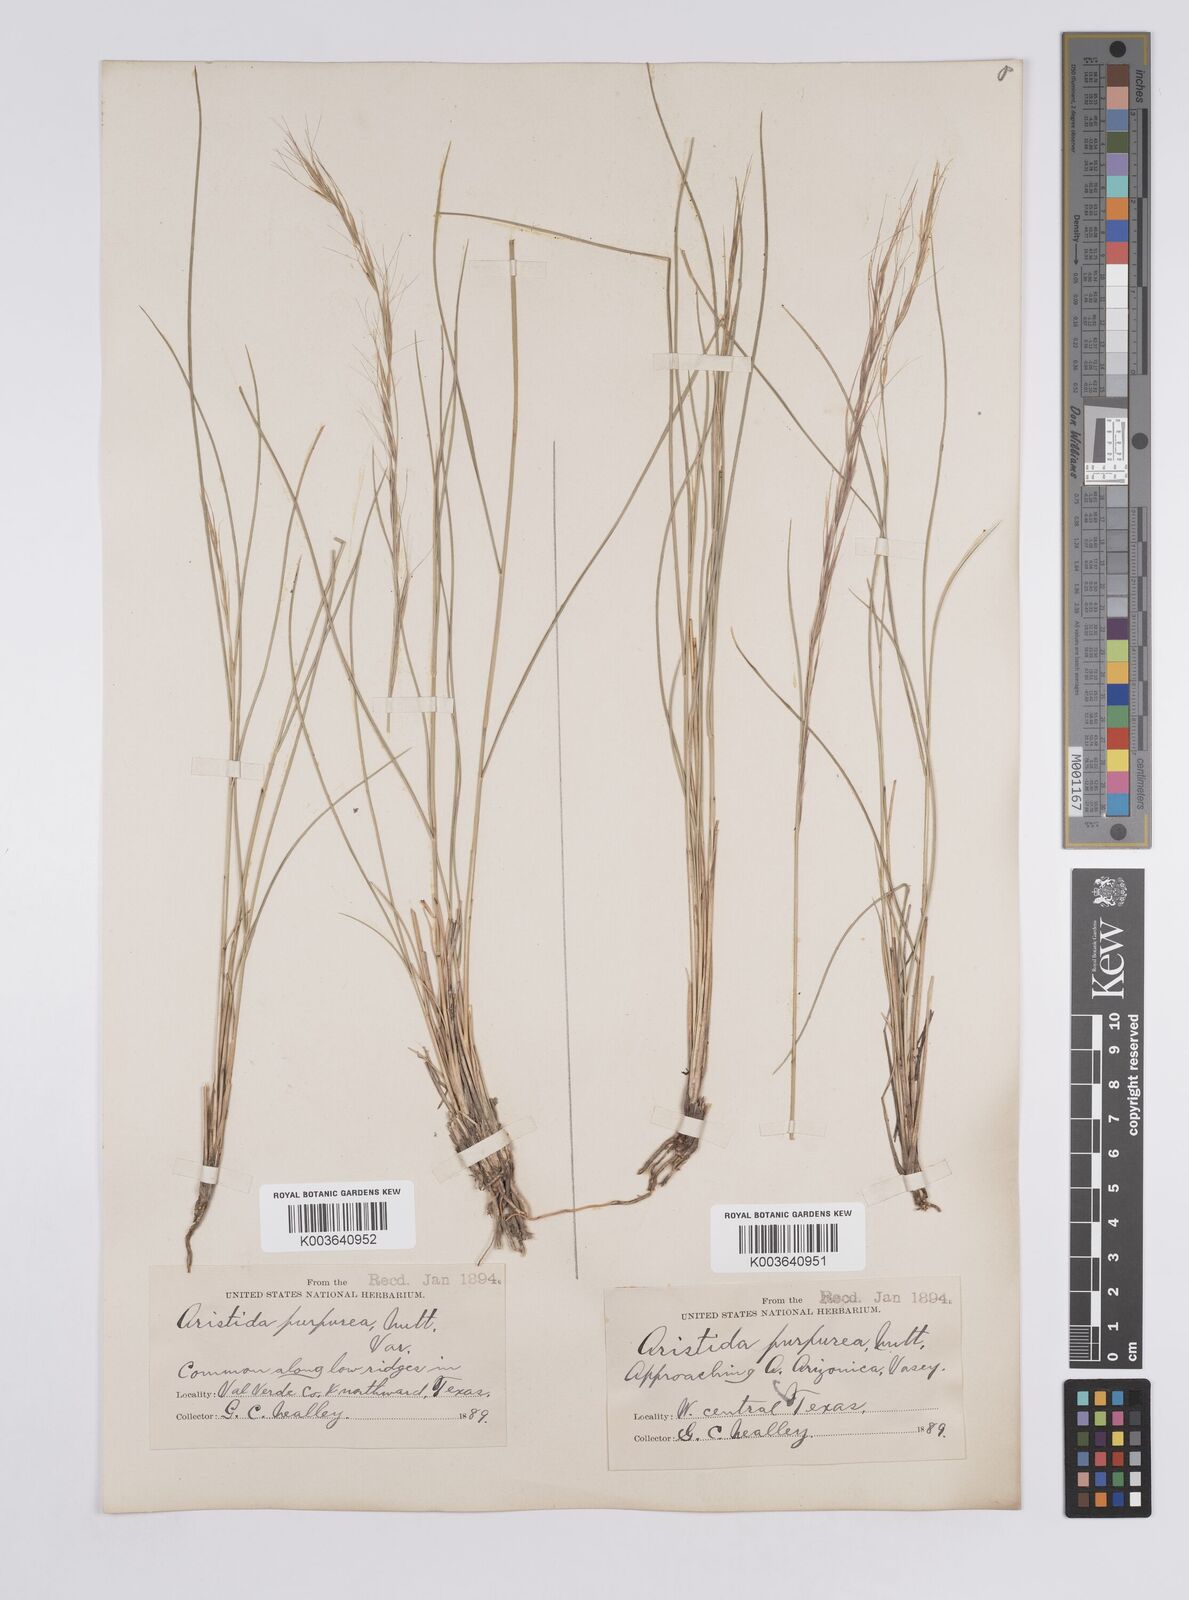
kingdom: Plantae
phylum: Tracheophyta
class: Liliopsida
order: Poales
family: Poaceae
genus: Aristida
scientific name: Aristida purpurea
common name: Purple threeawn
